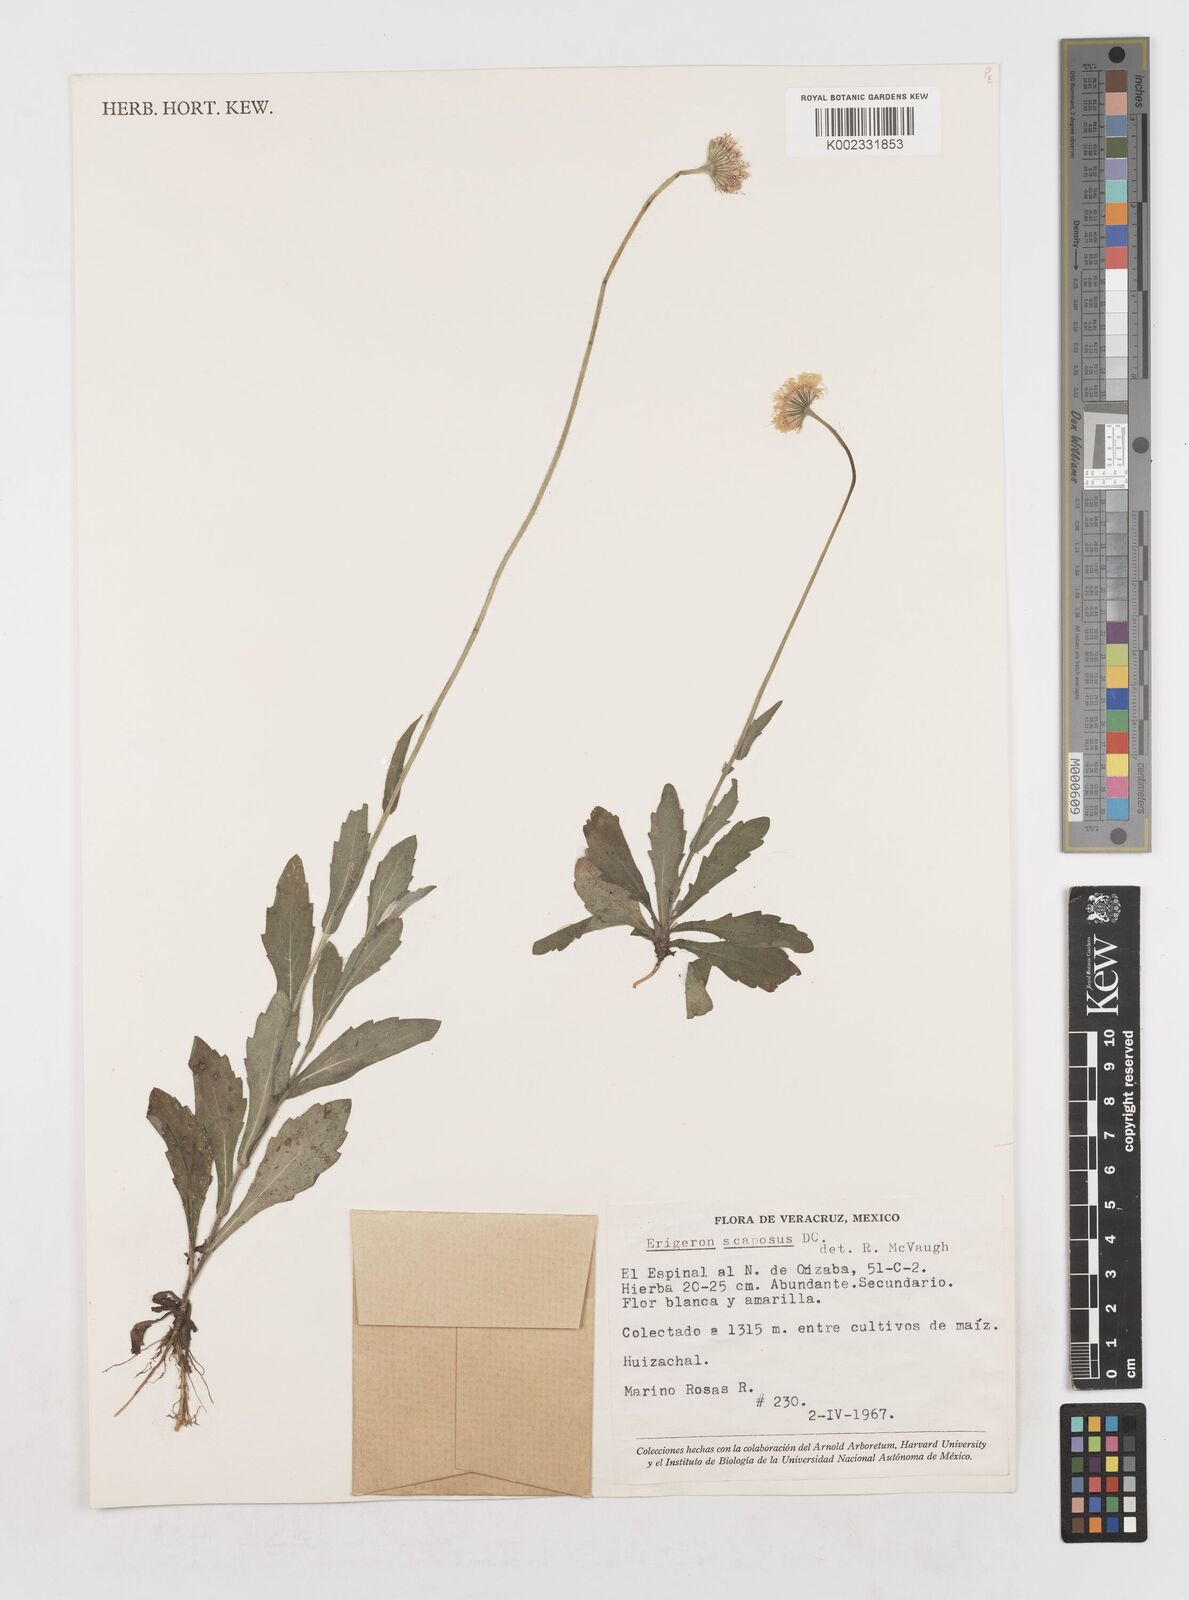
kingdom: Plantae
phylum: Tracheophyta
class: Magnoliopsida
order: Asterales
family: Asteraceae
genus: Erigeron
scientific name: Erigeron longipes
